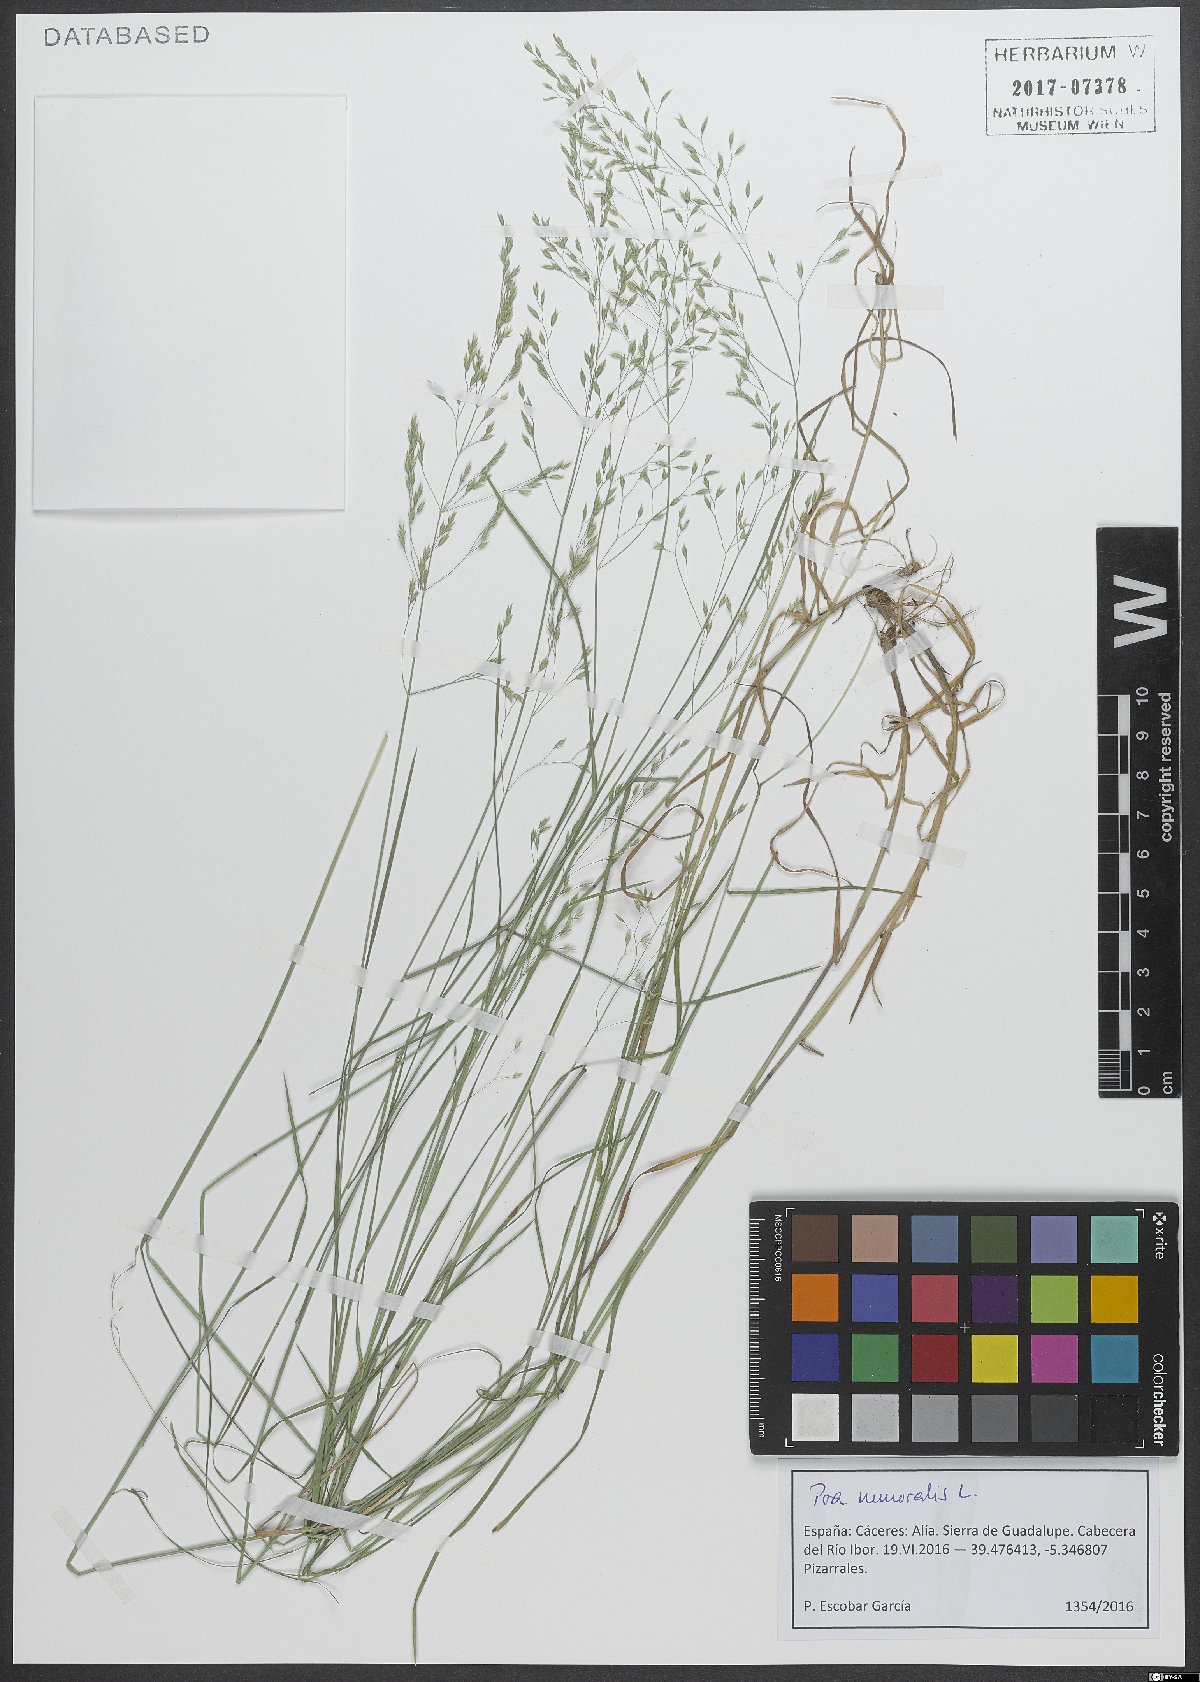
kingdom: Plantae
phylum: Tracheophyta
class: Liliopsida
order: Poales
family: Poaceae
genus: Poa
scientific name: Poa nemoralis
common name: Wood bluegrass
